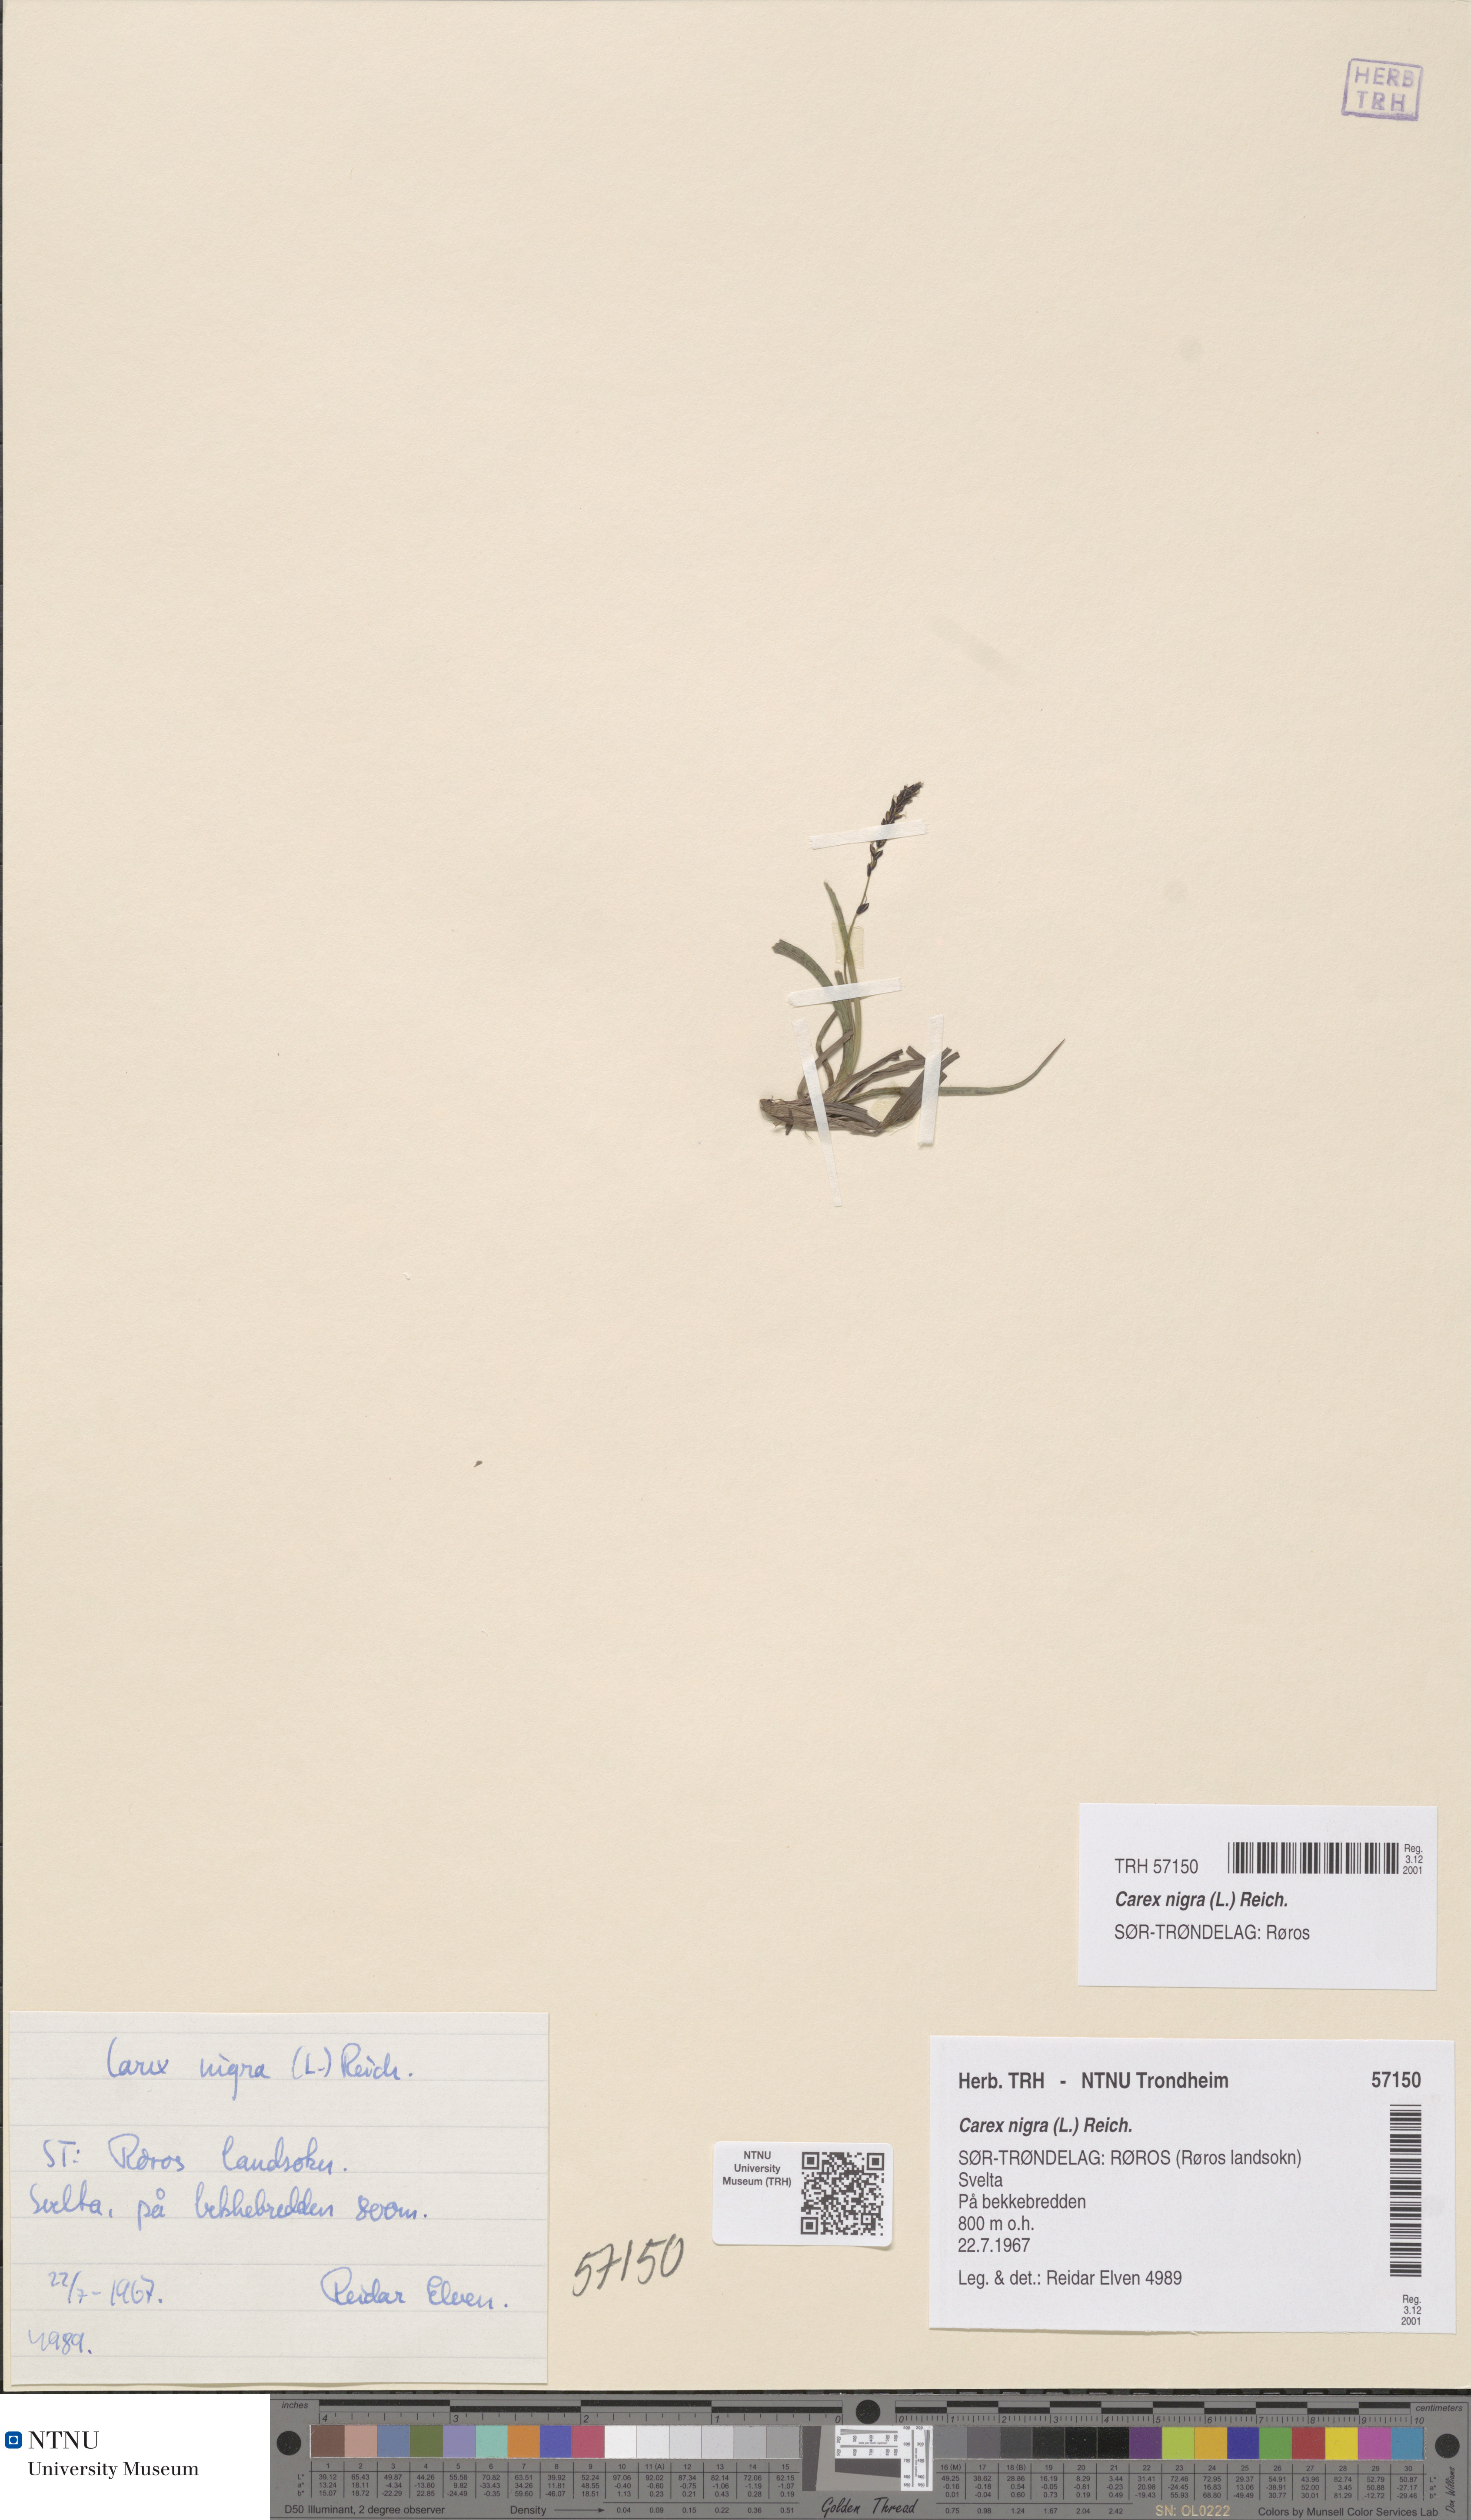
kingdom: Plantae
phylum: Tracheophyta
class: Liliopsida
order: Poales
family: Cyperaceae
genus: Carex
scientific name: Carex nigra
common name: Common sedge
